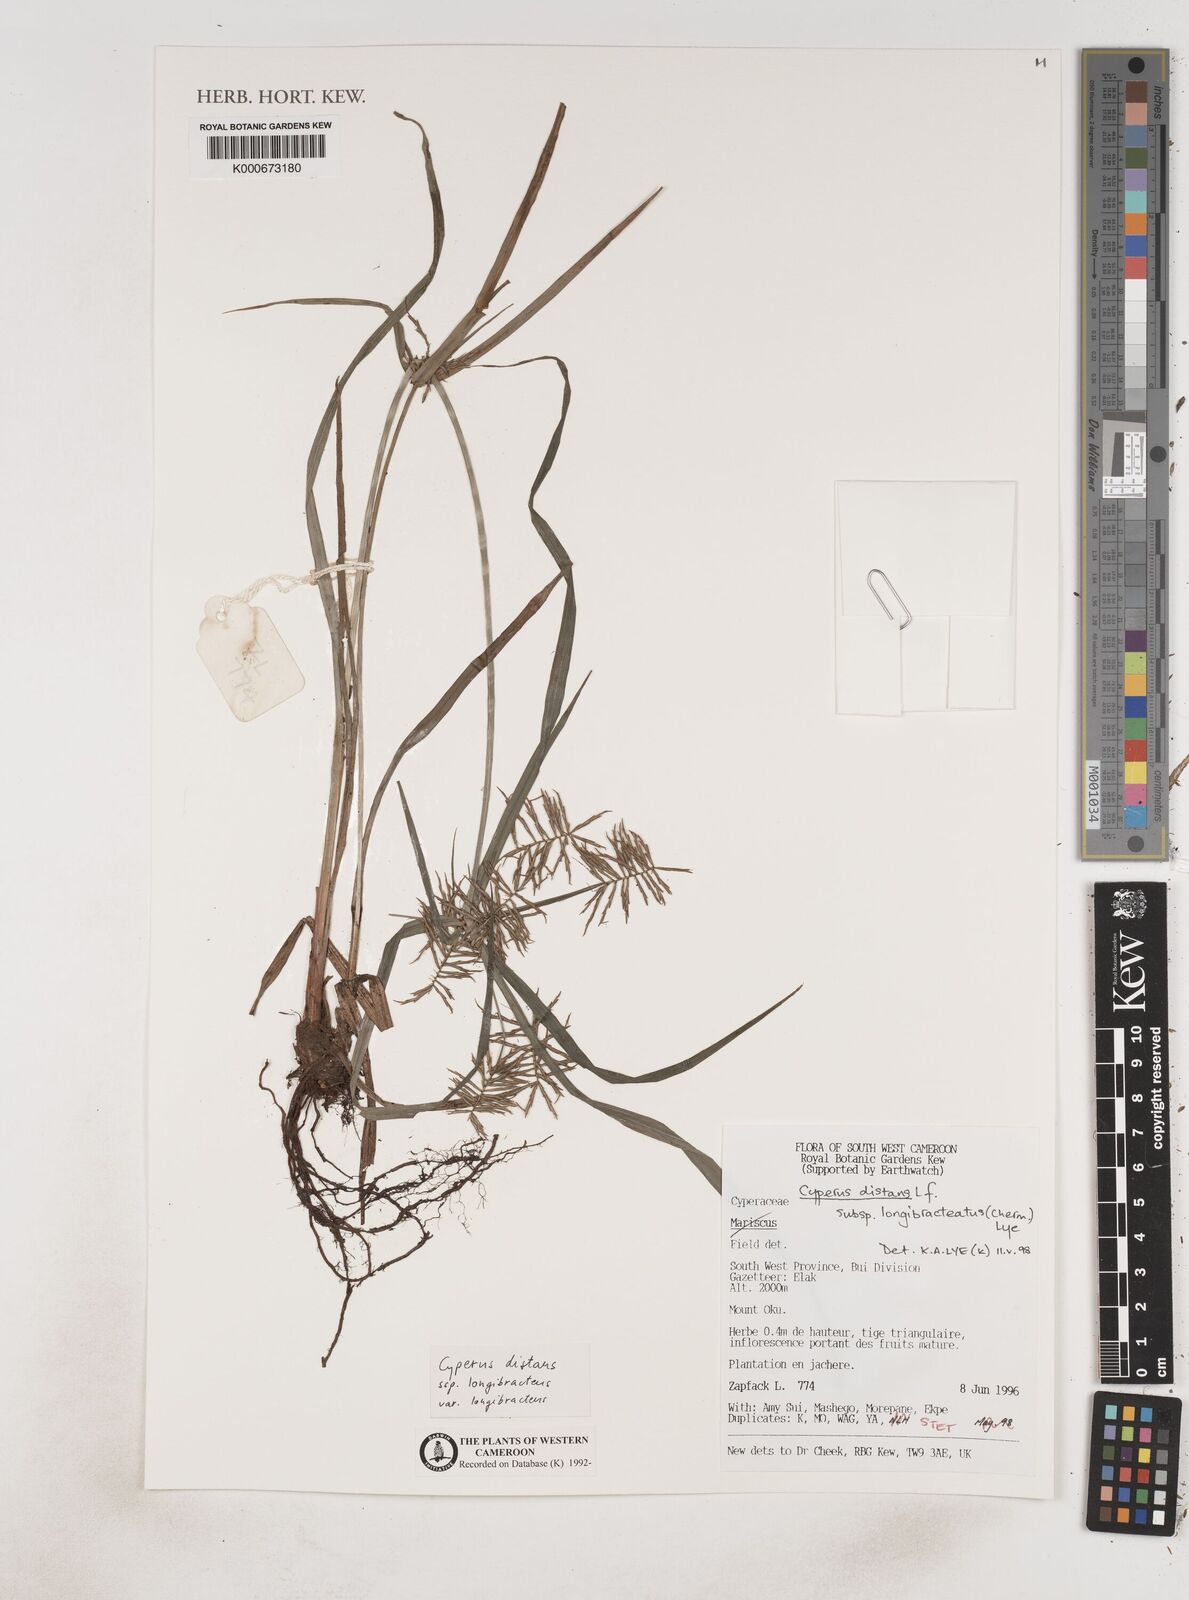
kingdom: Plantae
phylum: Tracheophyta
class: Liliopsida
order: Poales
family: Cyperaceae
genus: Cyperus
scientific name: Cyperus distans
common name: Slender cyperus
